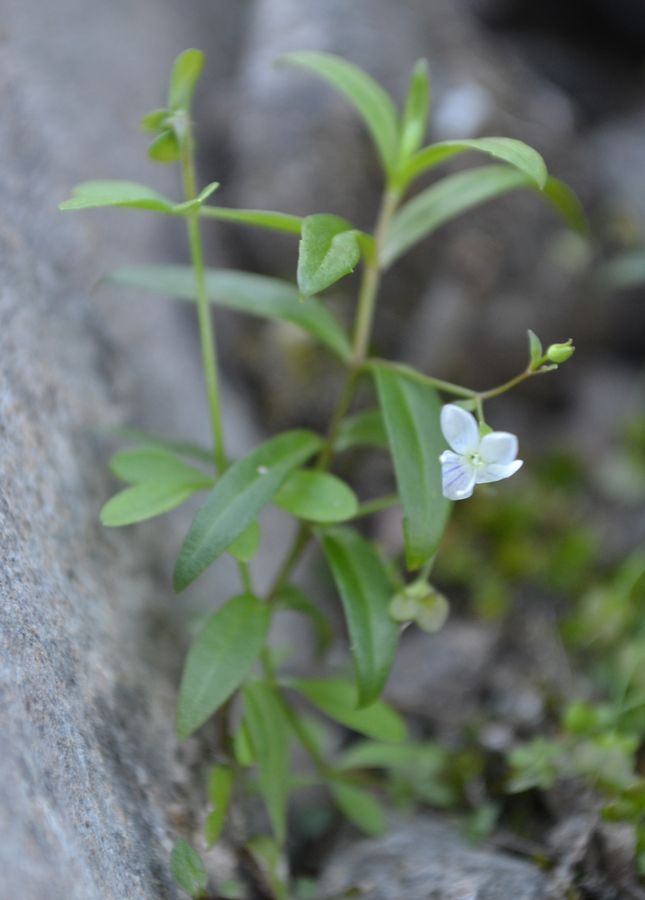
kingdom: Plantae
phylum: Tracheophyta
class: Magnoliopsida
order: Lamiales
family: Plantaginaceae
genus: Veronica
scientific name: Veronica scutellata
